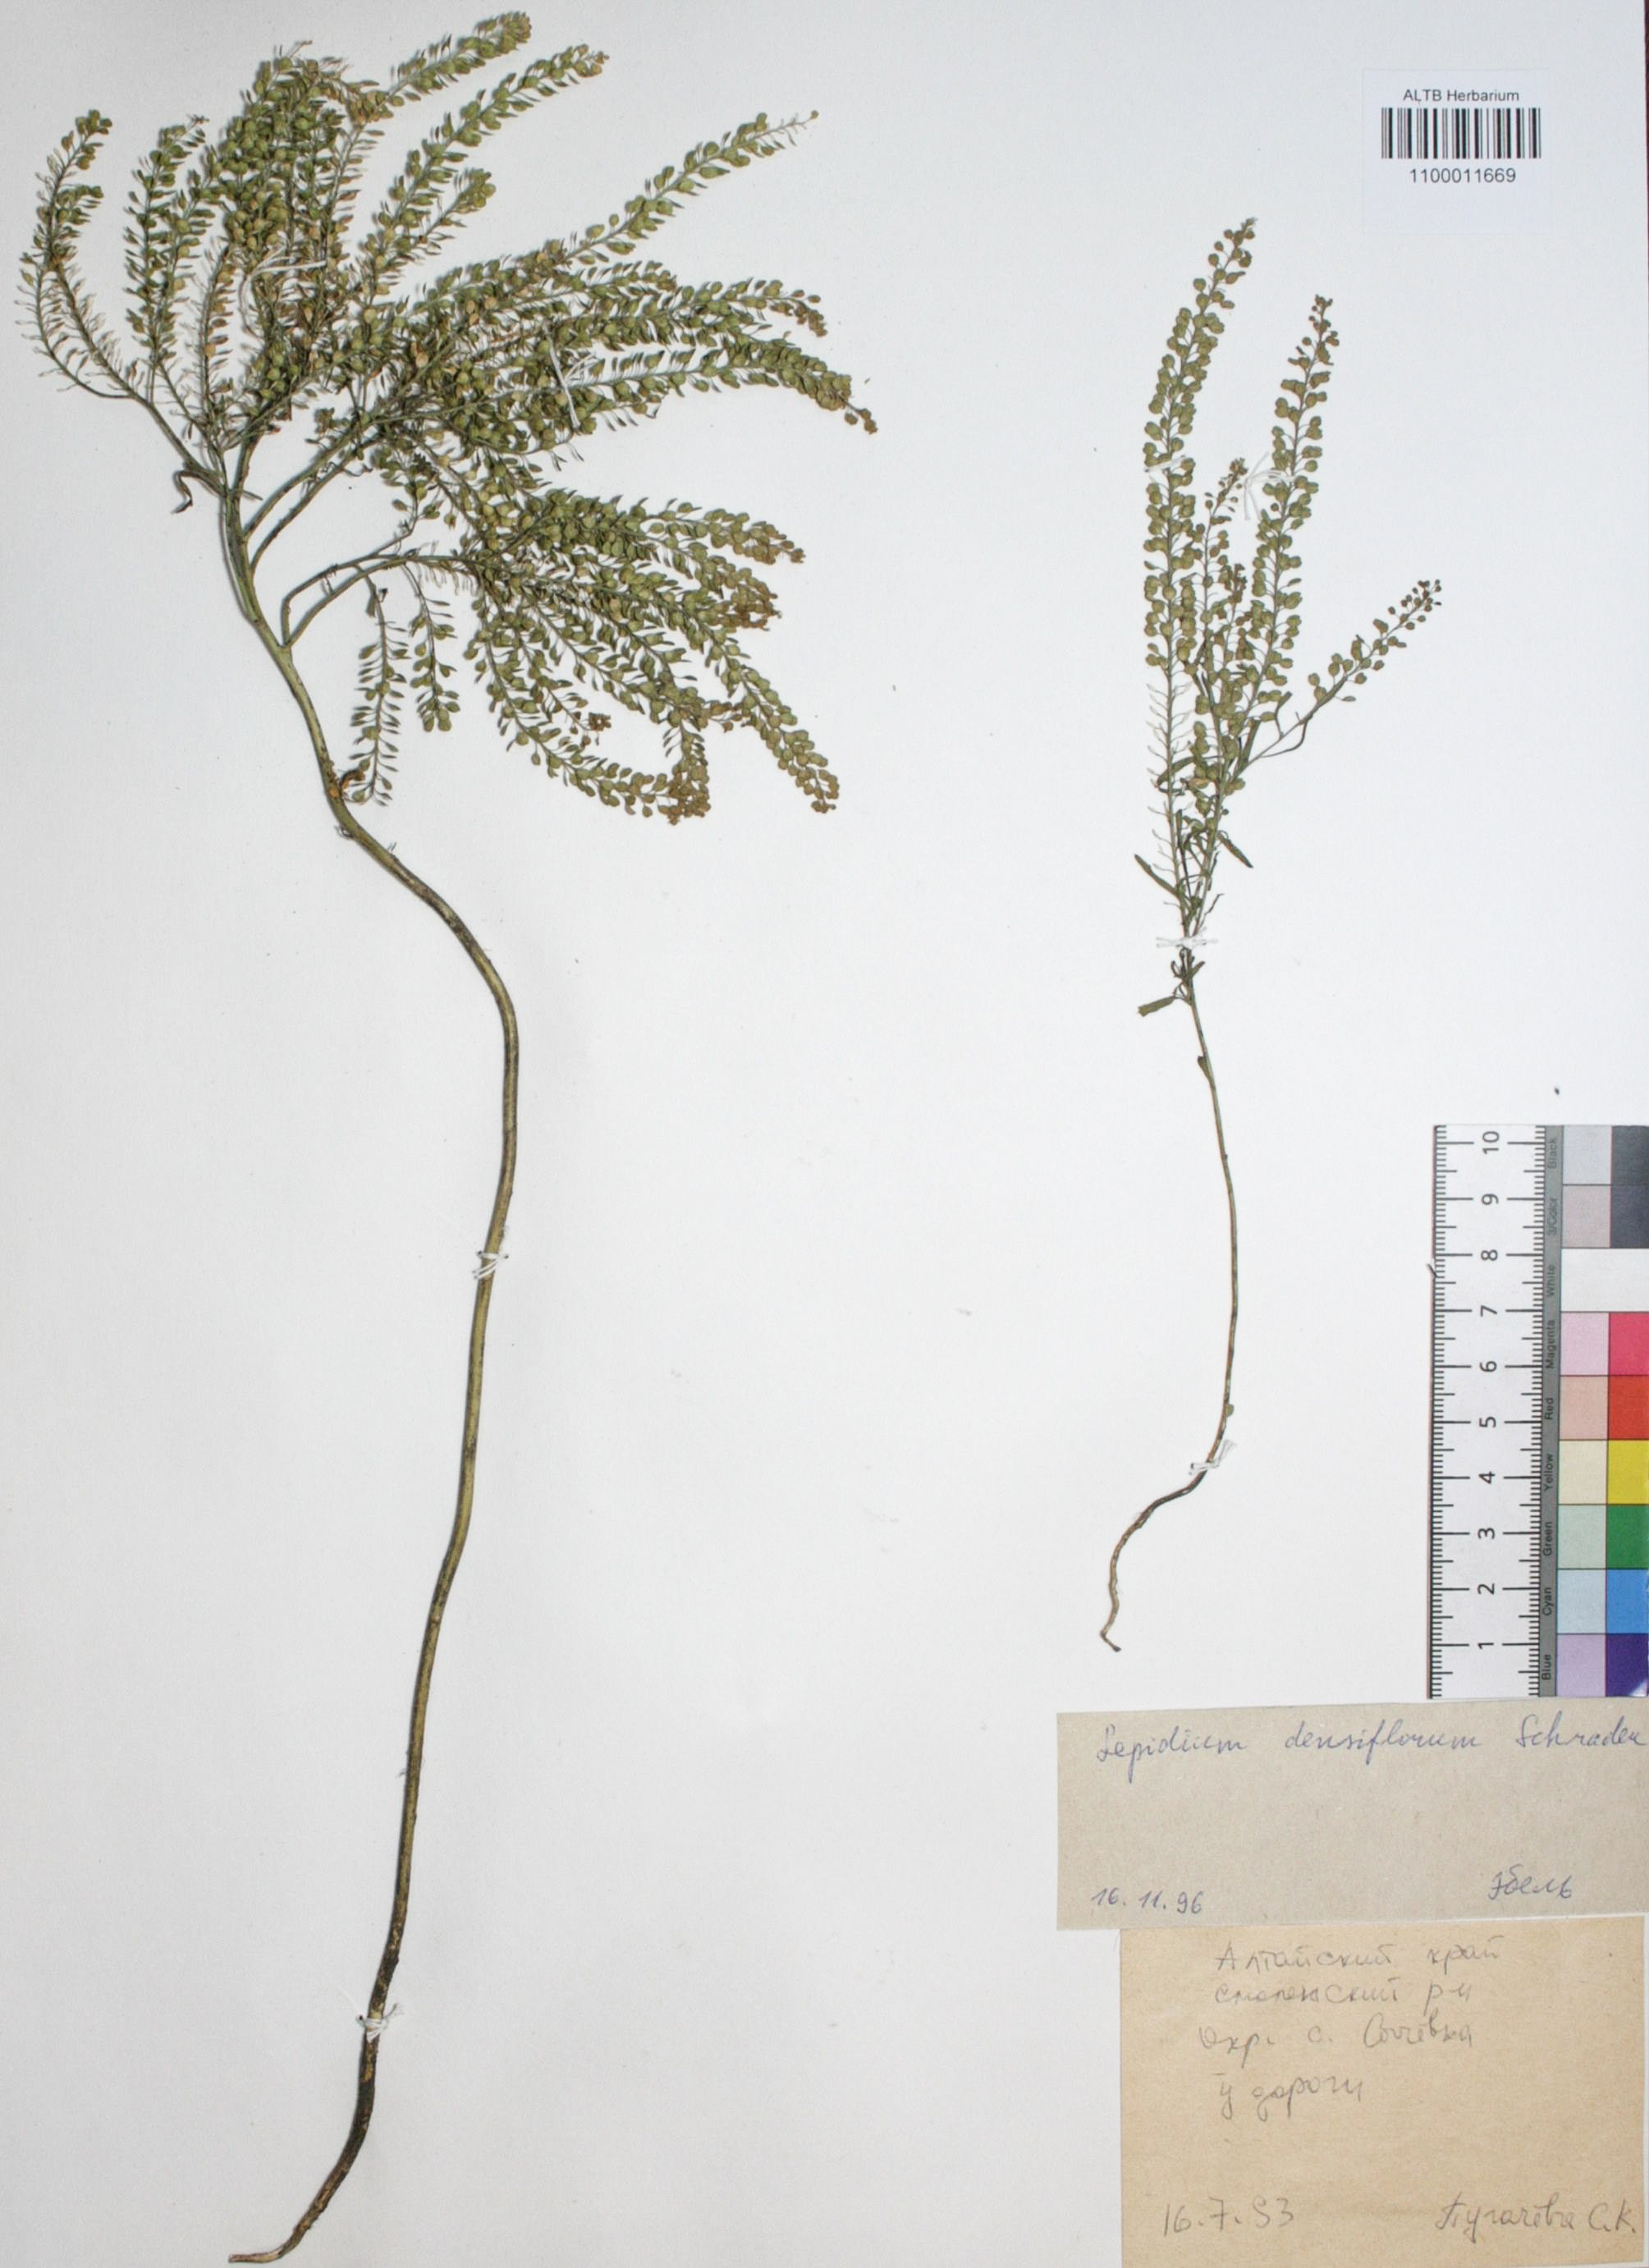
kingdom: Plantae
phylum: Tracheophyta
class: Magnoliopsida
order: Brassicales
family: Brassicaceae
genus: Lepidium
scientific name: Lepidium densiflorum
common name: Miner's pepperwort
